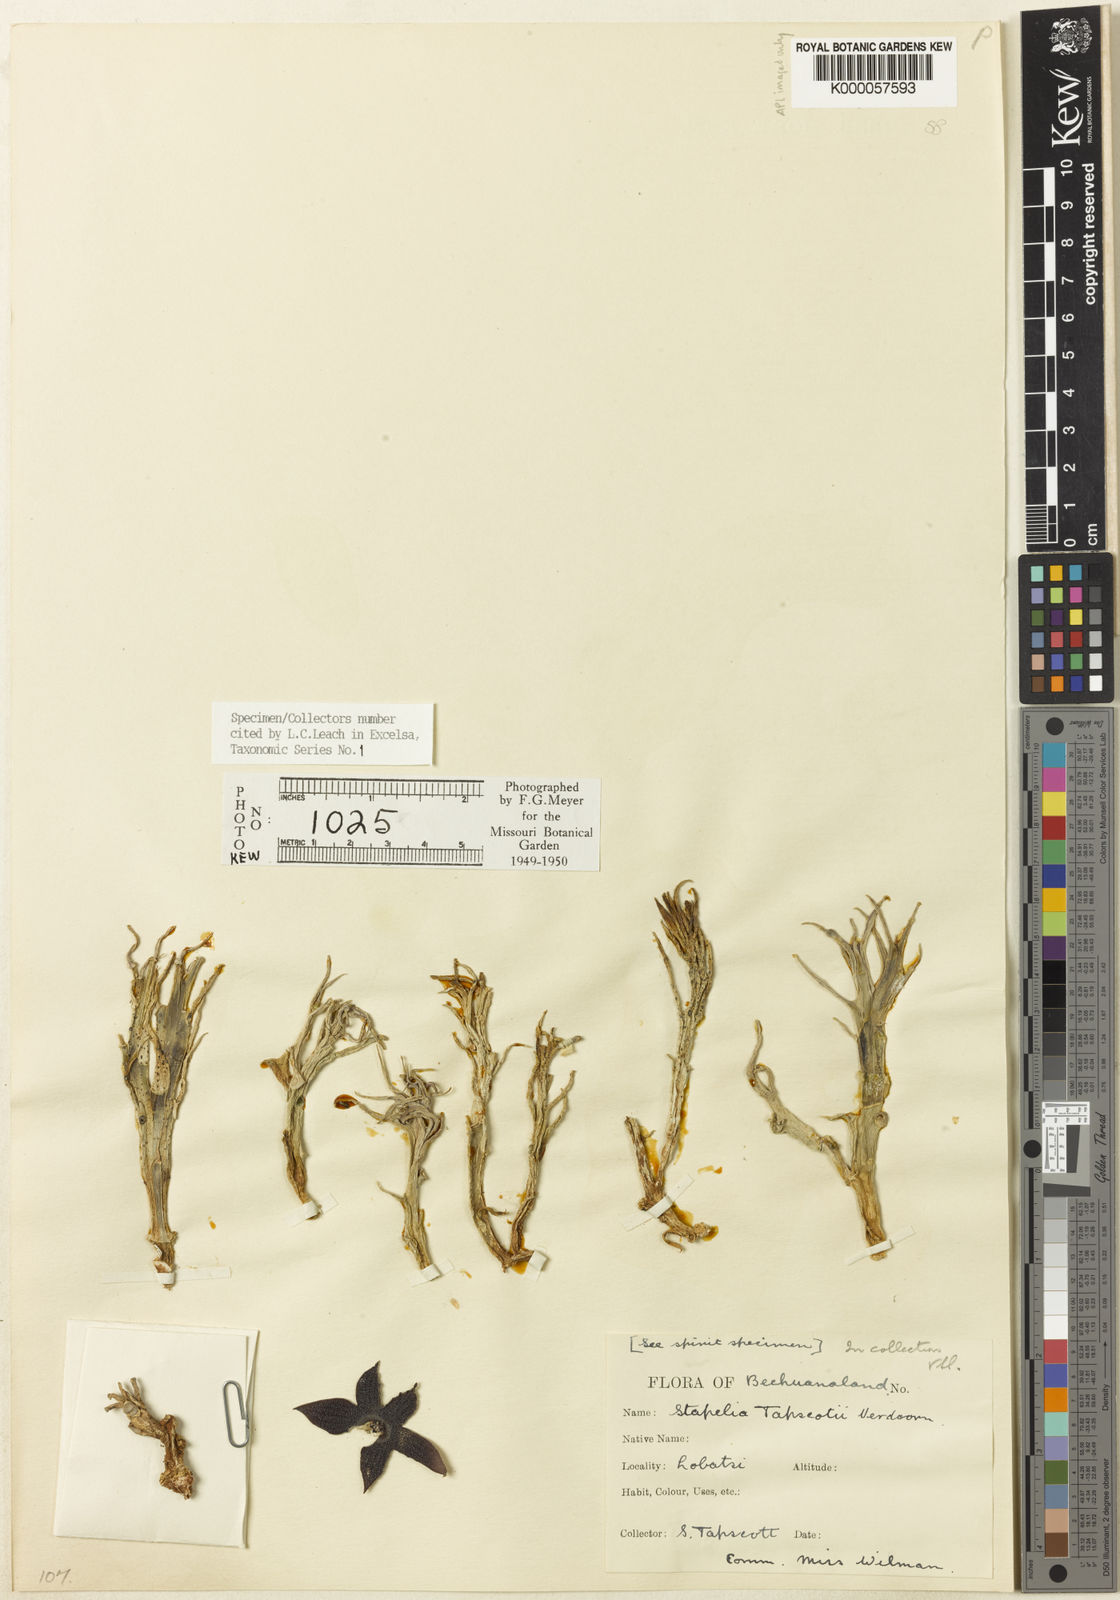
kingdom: Plantae
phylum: Tracheophyta
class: Magnoliopsida
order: Gentianales
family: Apocynaceae
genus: Ceropegia
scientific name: Ceropegia tapscottii
